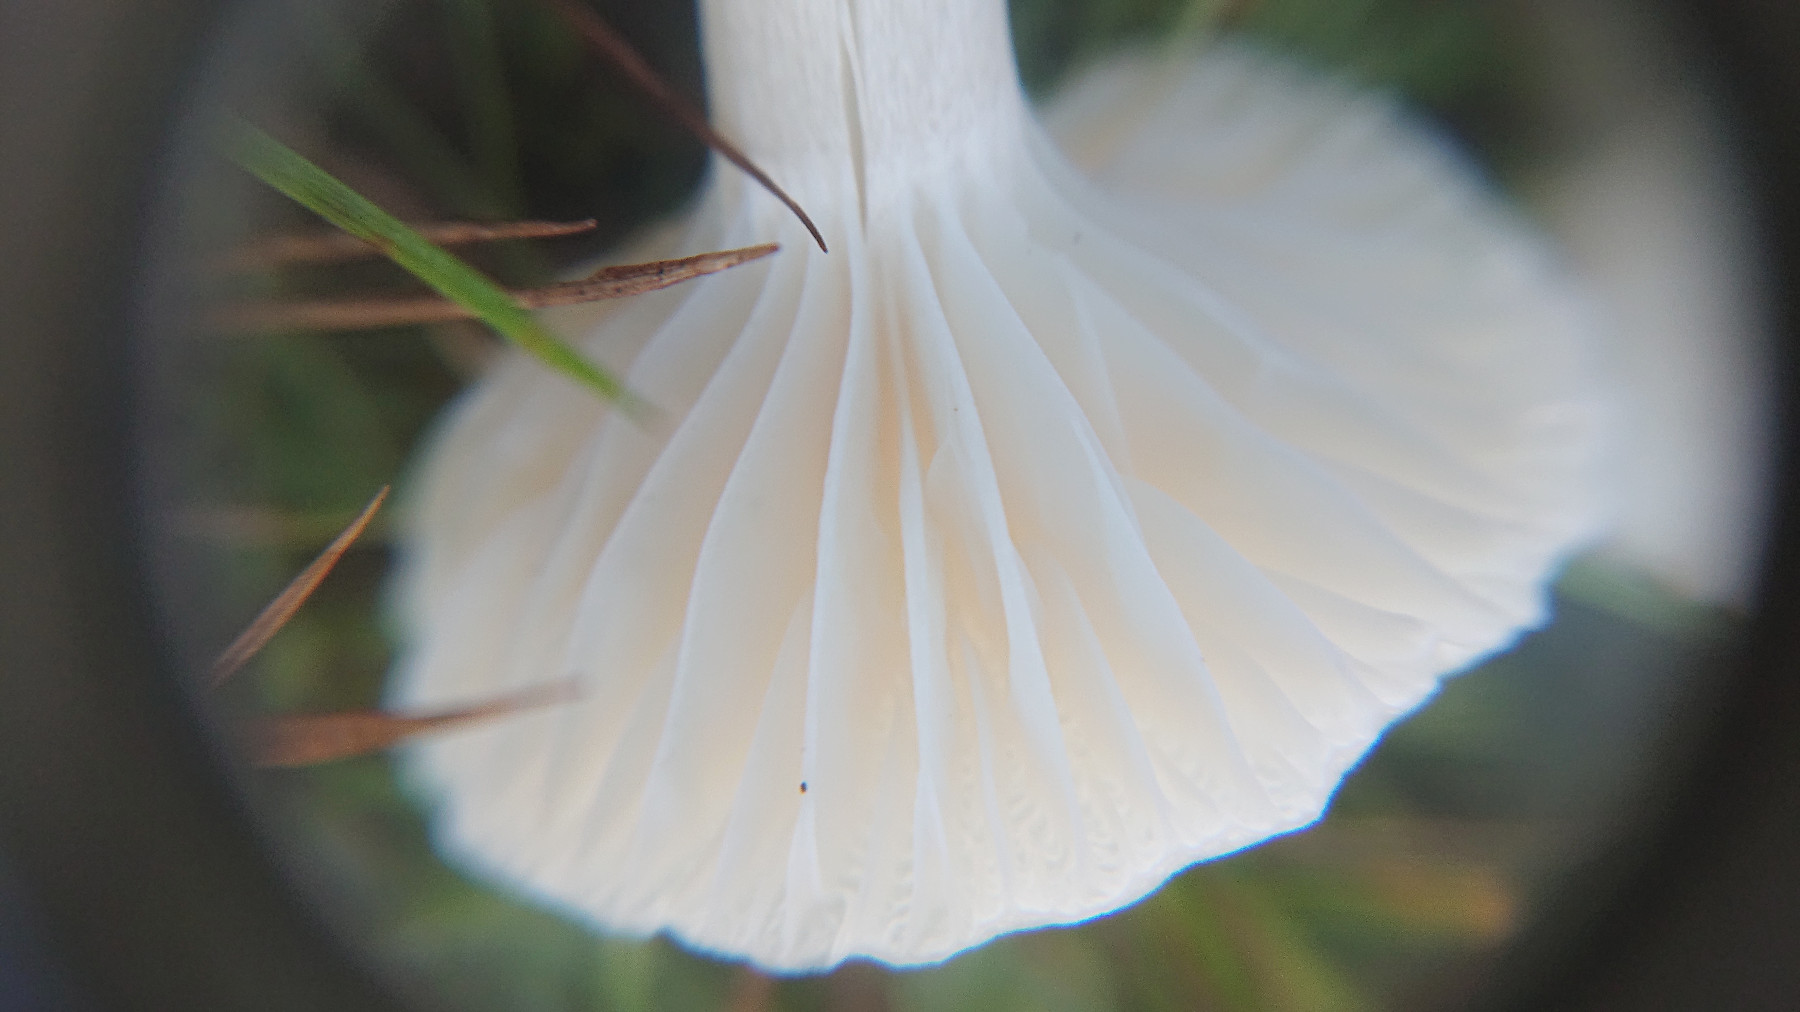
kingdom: Fungi
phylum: Basidiomycota
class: Agaricomycetes
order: Agaricales
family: Hygrophoraceae
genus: Cuphophyllus
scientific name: Cuphophyllus virgineus
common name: snehvid vokshat
